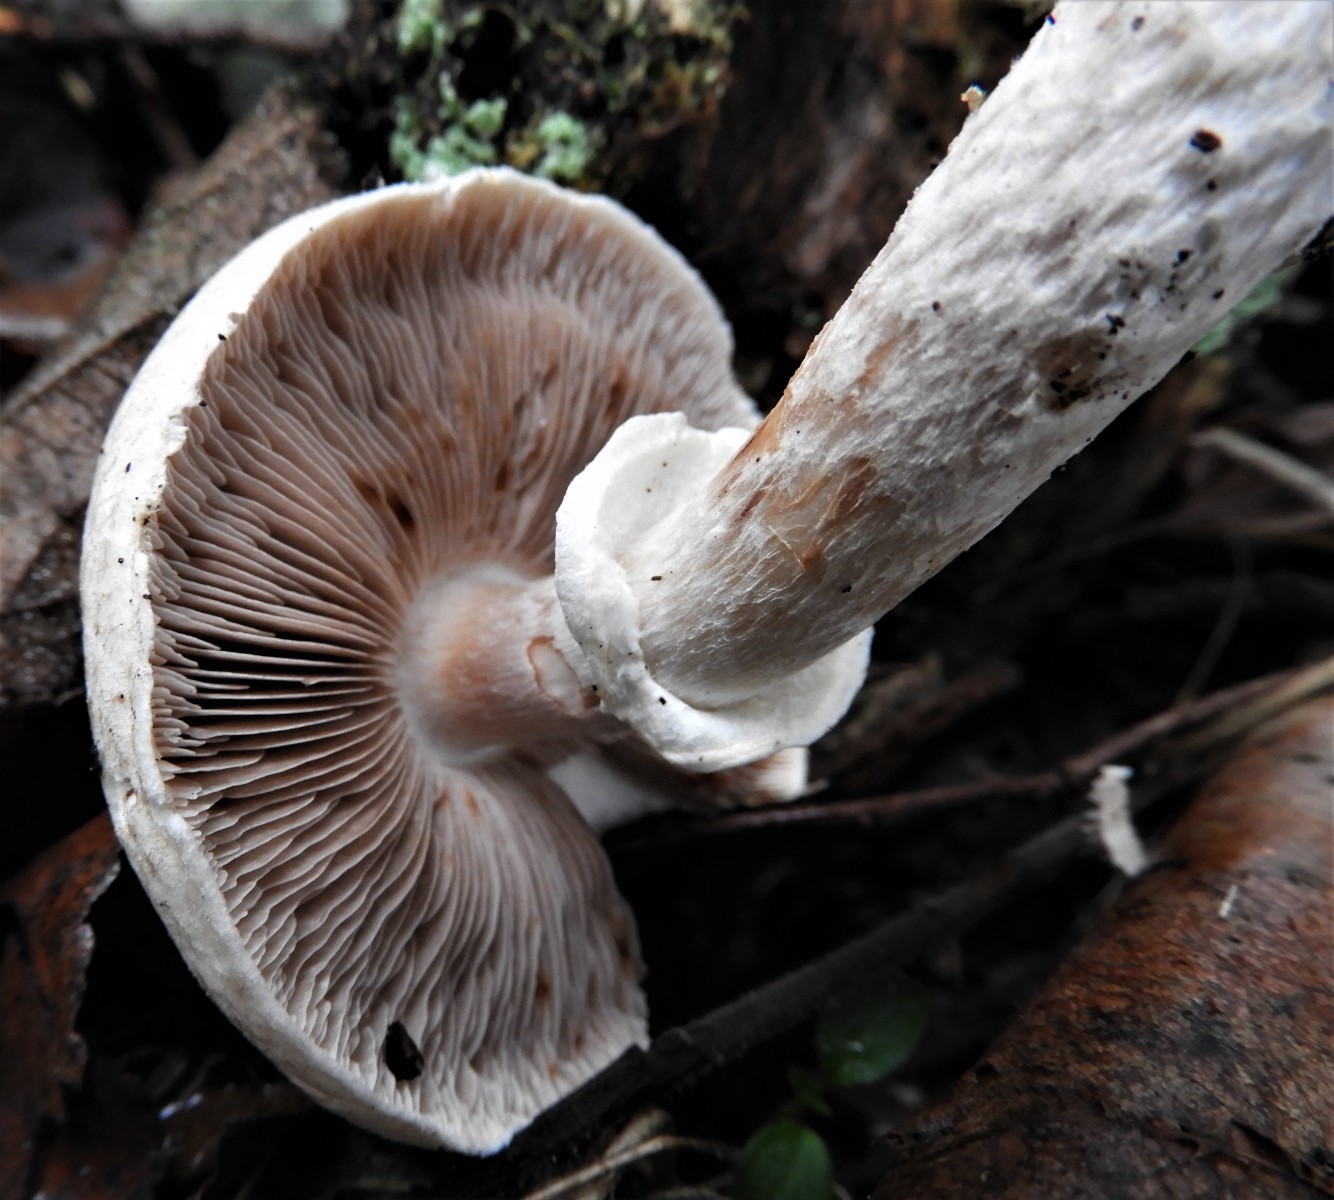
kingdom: Fungi
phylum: Basidiomycota
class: Agaricomycetes
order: Agaricales
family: Agaricaceae
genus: Agaricus
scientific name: Agaricus impudicus
